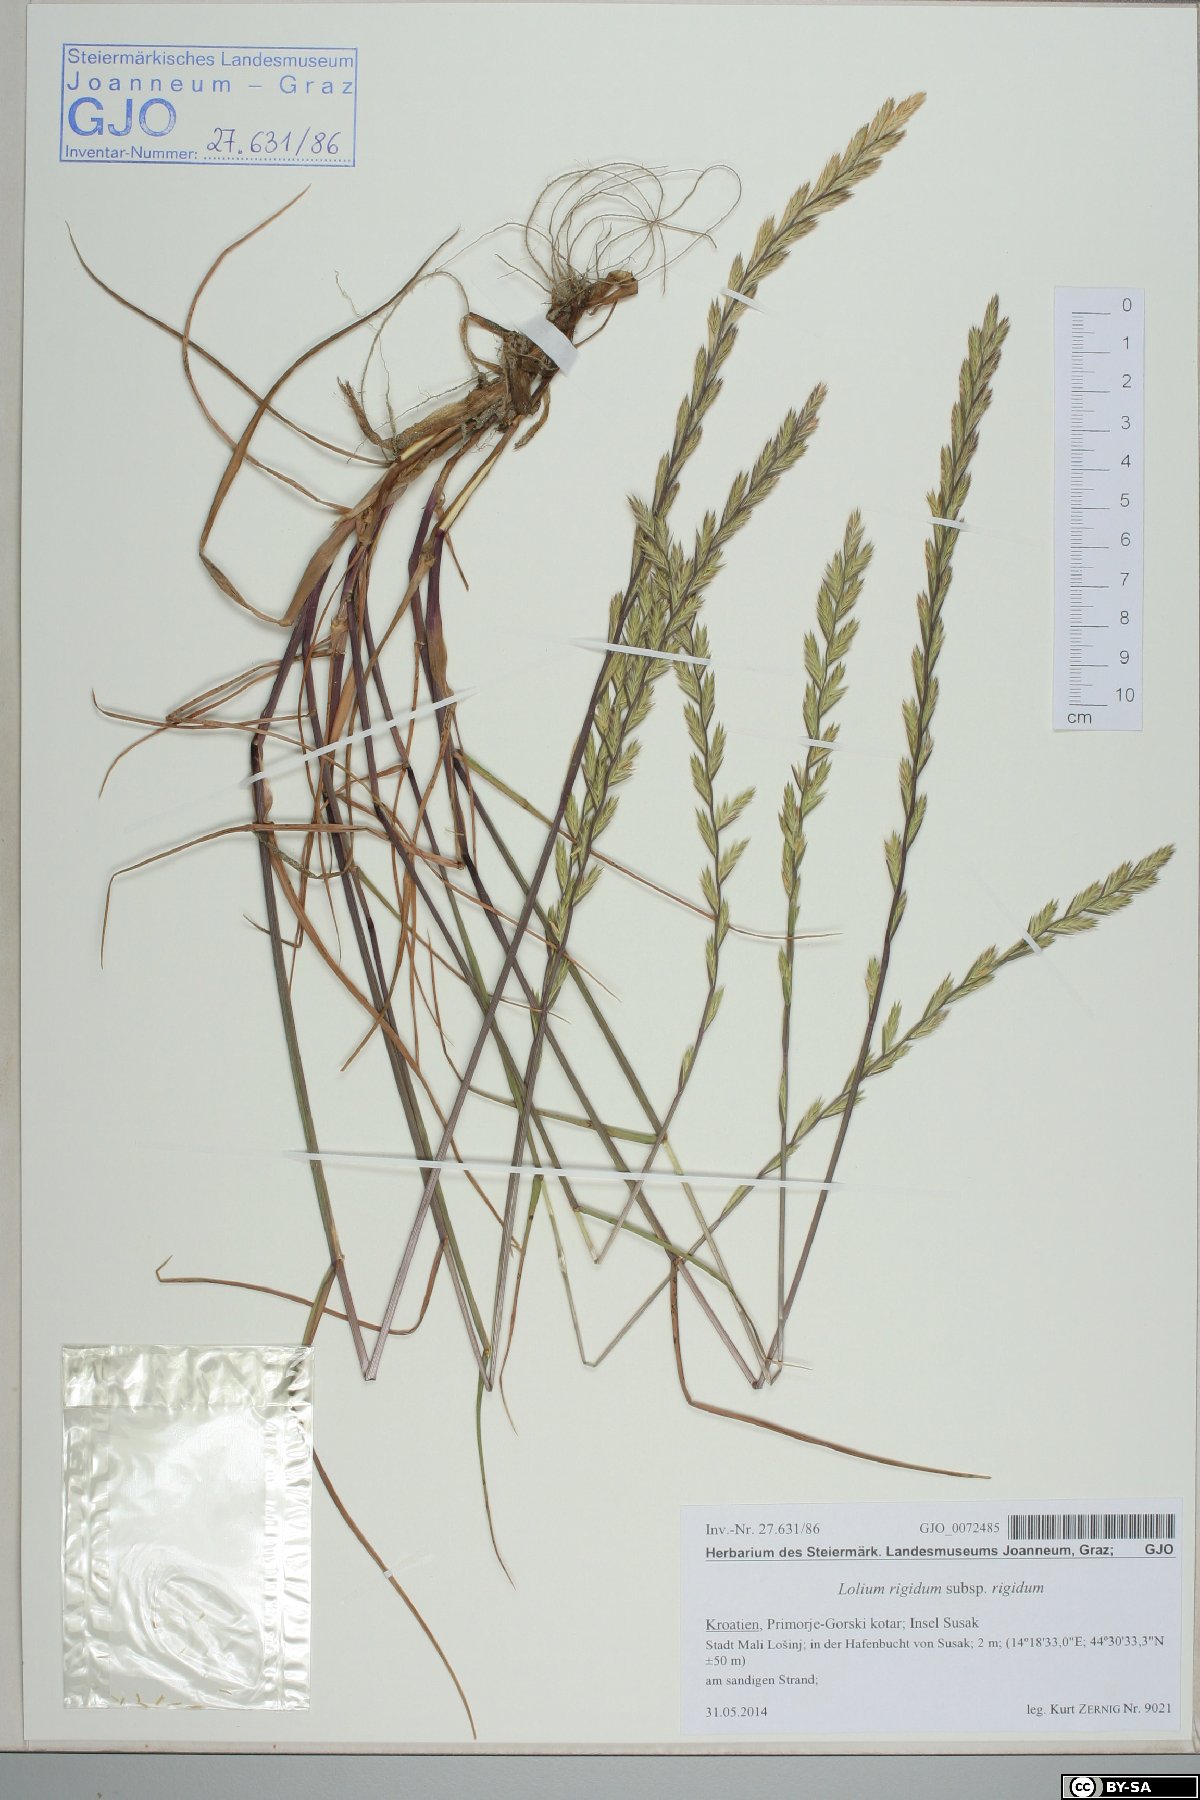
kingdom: Plantae
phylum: Tracheophyta
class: Liliopsida
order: Poales
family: Poaceae
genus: Lolium
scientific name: Lolium rigidum
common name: Wimmera ryegrass
